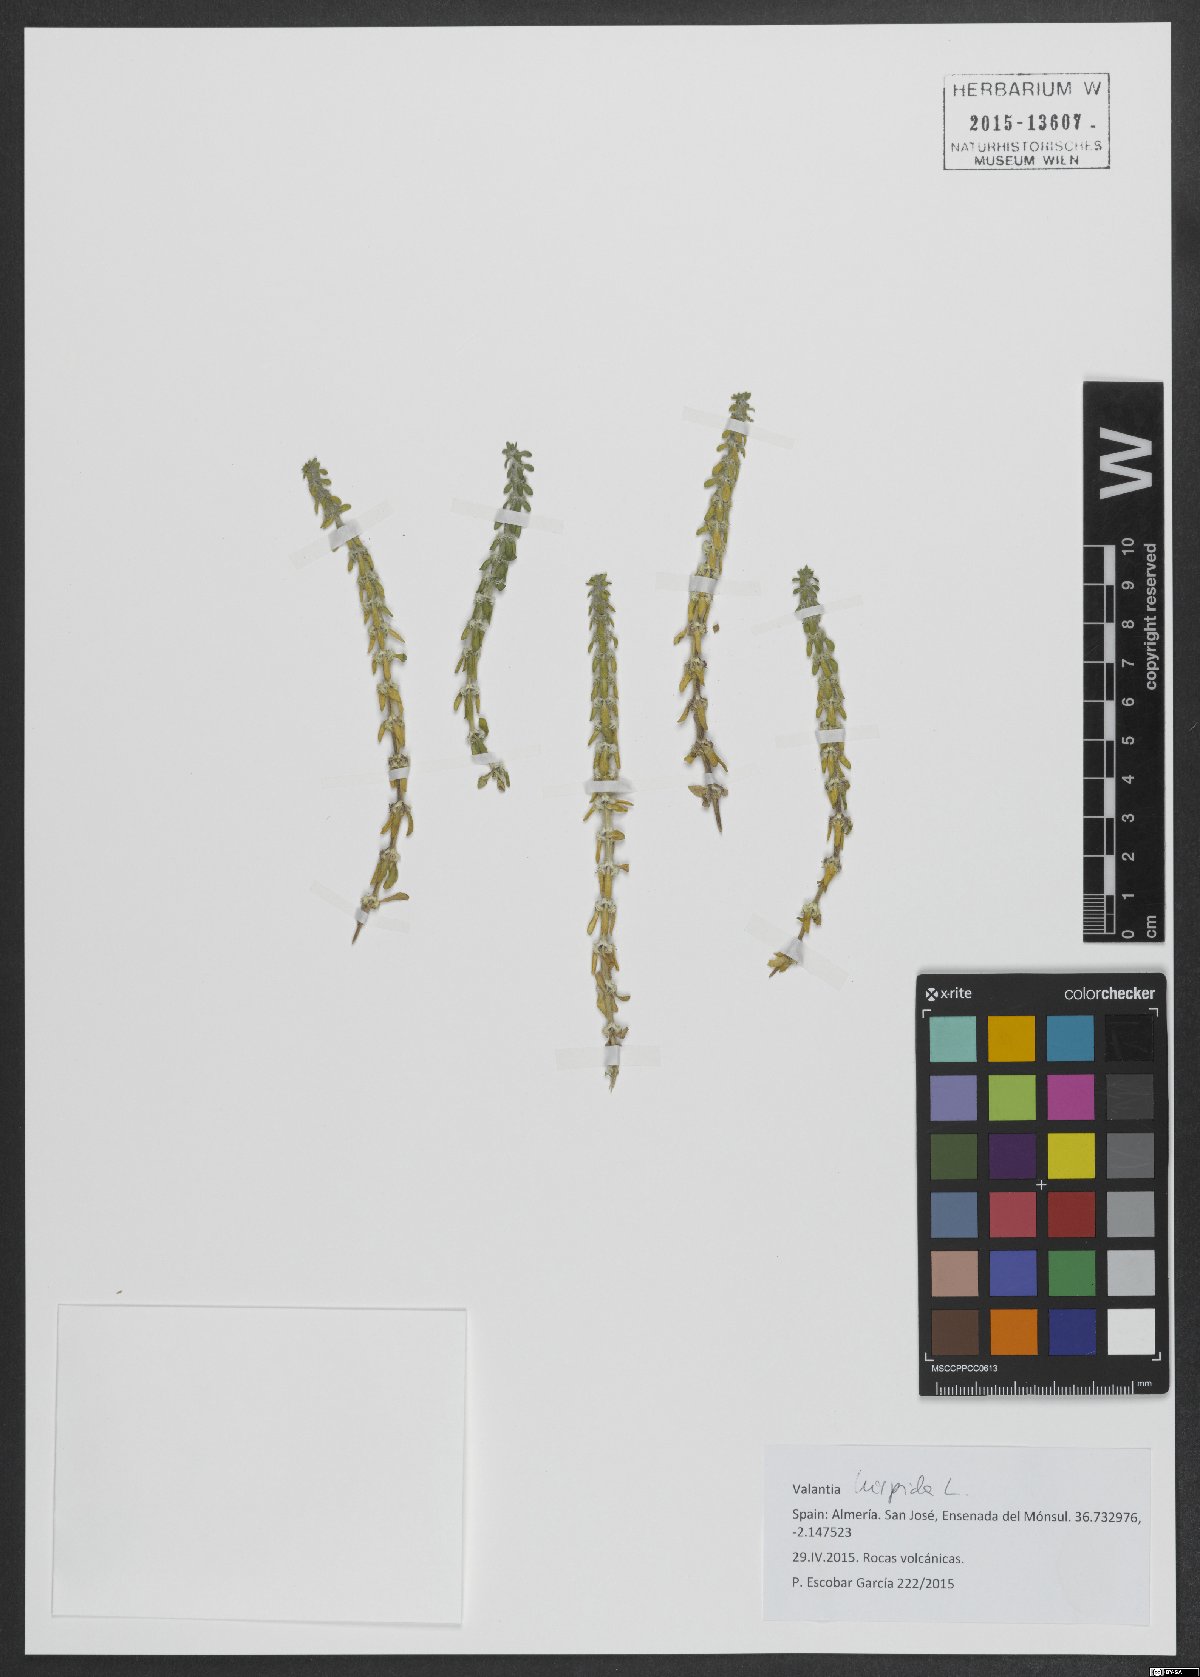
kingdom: Plantae
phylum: Tracheophyta
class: Magnoliopsida
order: Gentianales
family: Rubiaceae
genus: Valantia
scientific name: Valantia hispida
